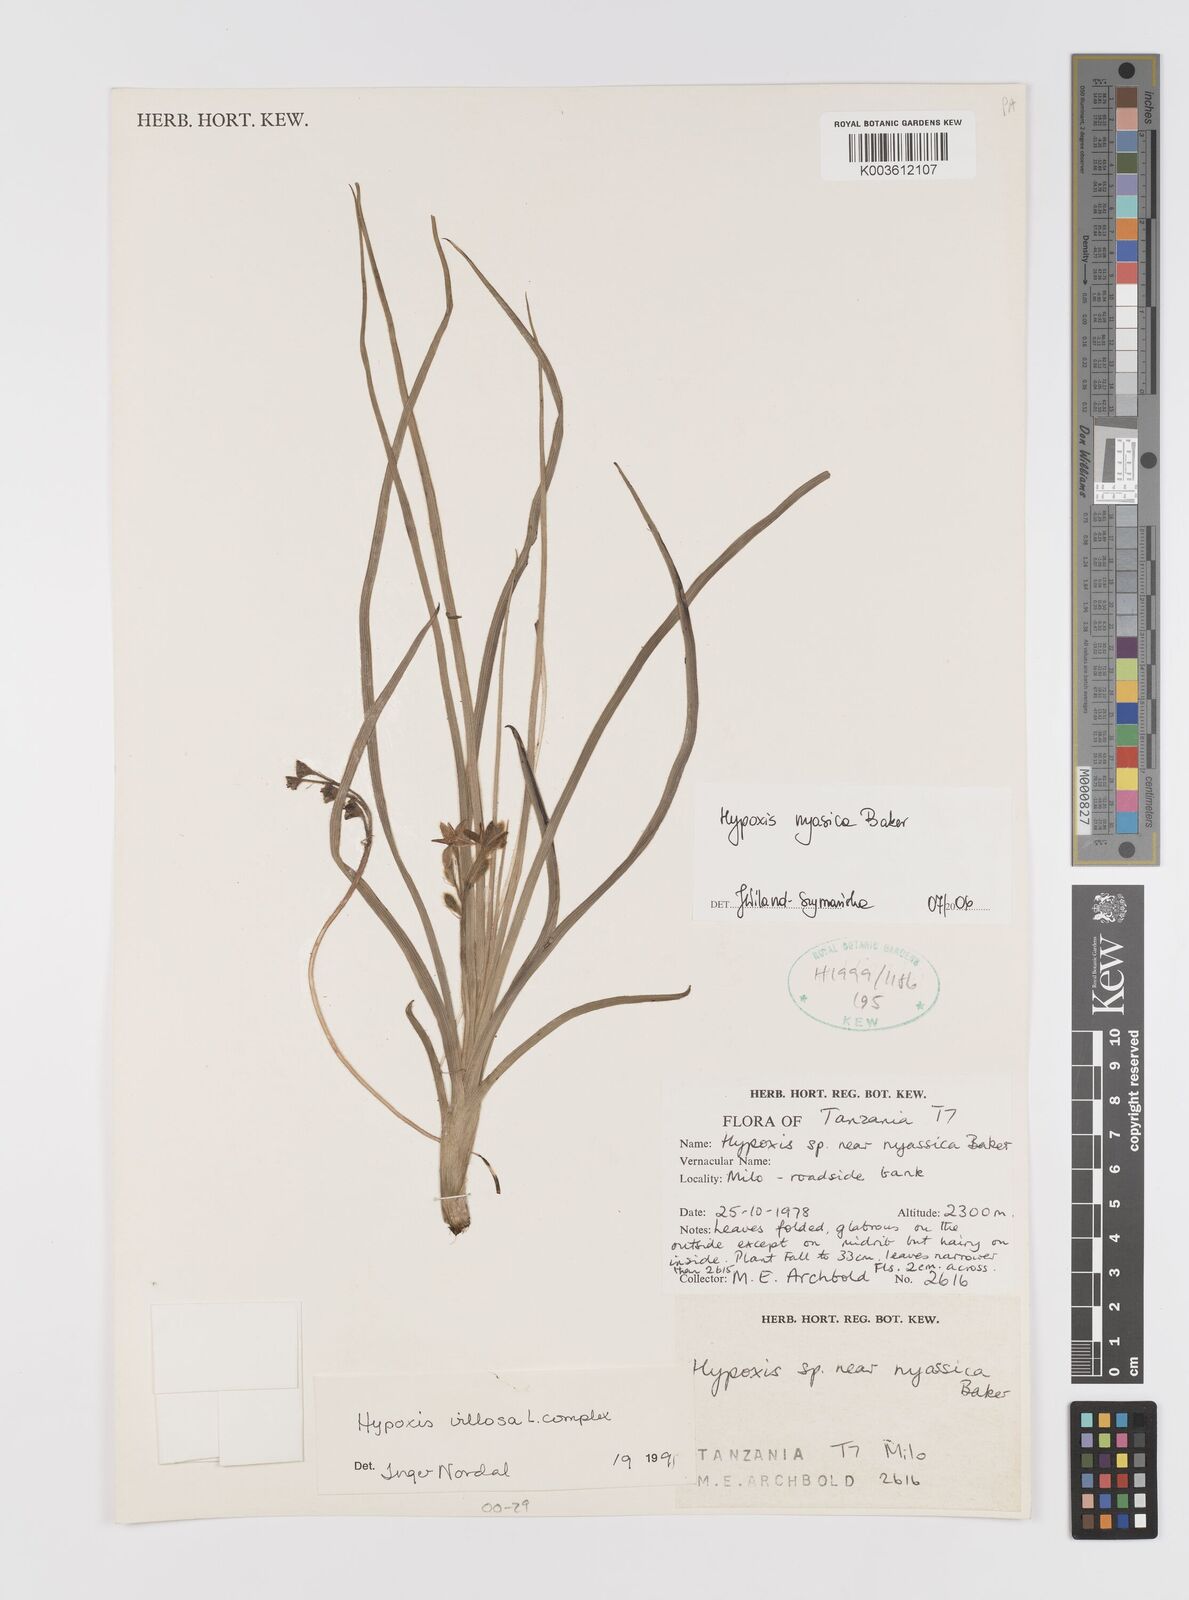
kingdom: Plantae
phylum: Tracheophyta
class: Liliopsida
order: Asparagales
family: Hypoxidaceae
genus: Hypoxis
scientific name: Hypoxis nyasica
